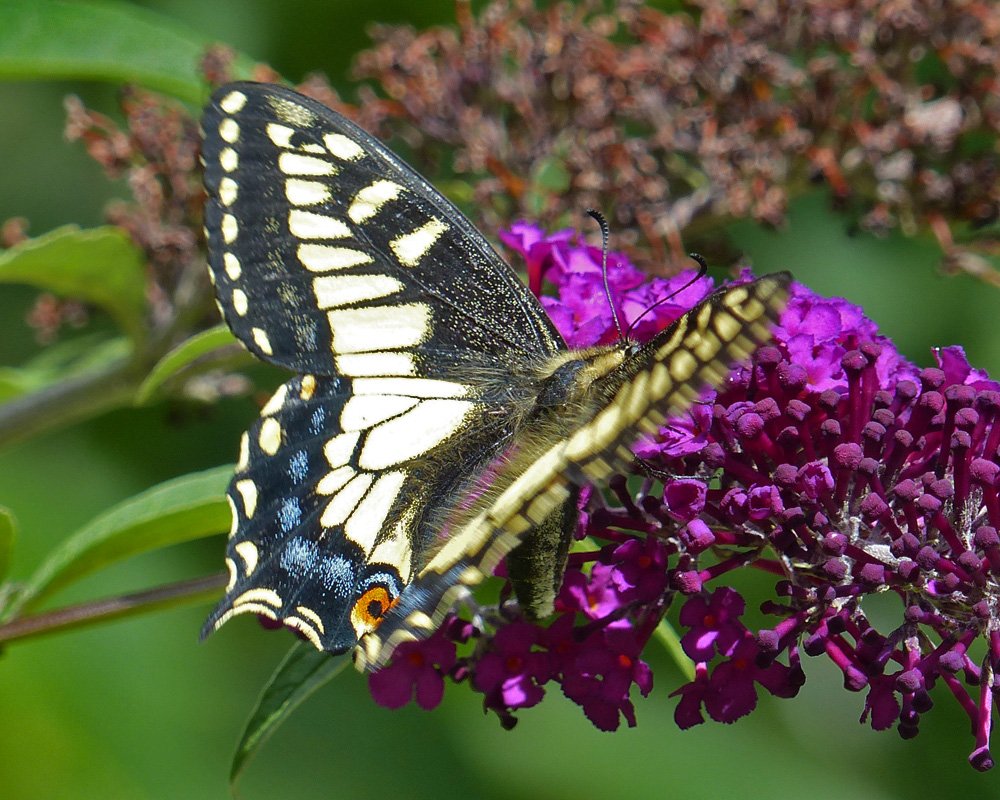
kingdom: Animalia
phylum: Arthropoda
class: Insecta
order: Lepidoptera
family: Papilionidae
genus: Papilio
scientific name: Papilio zelicaon
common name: Anise Swallowtail
